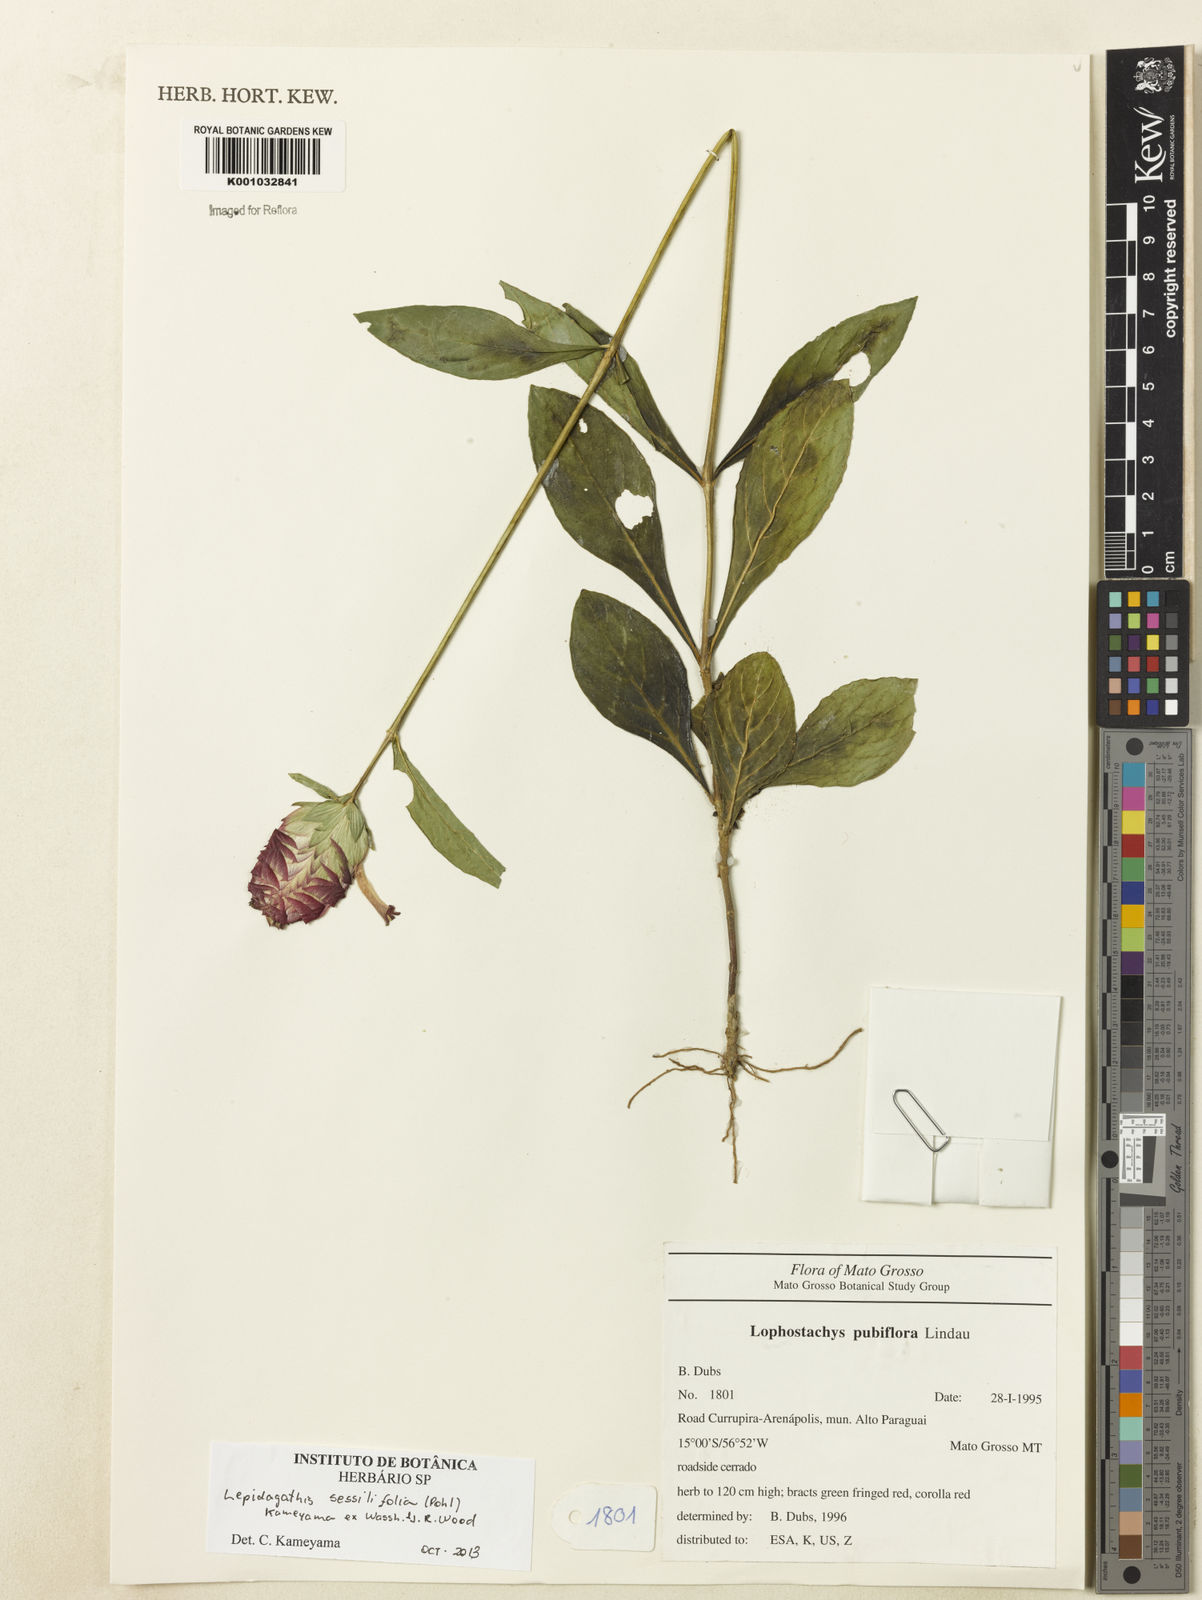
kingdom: Plantae
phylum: Tracheophyta
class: Magnoliopsida
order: Lamiales
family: Acanthaceae
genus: Lepidagathis
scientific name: Lepidagathis sessilifolia
